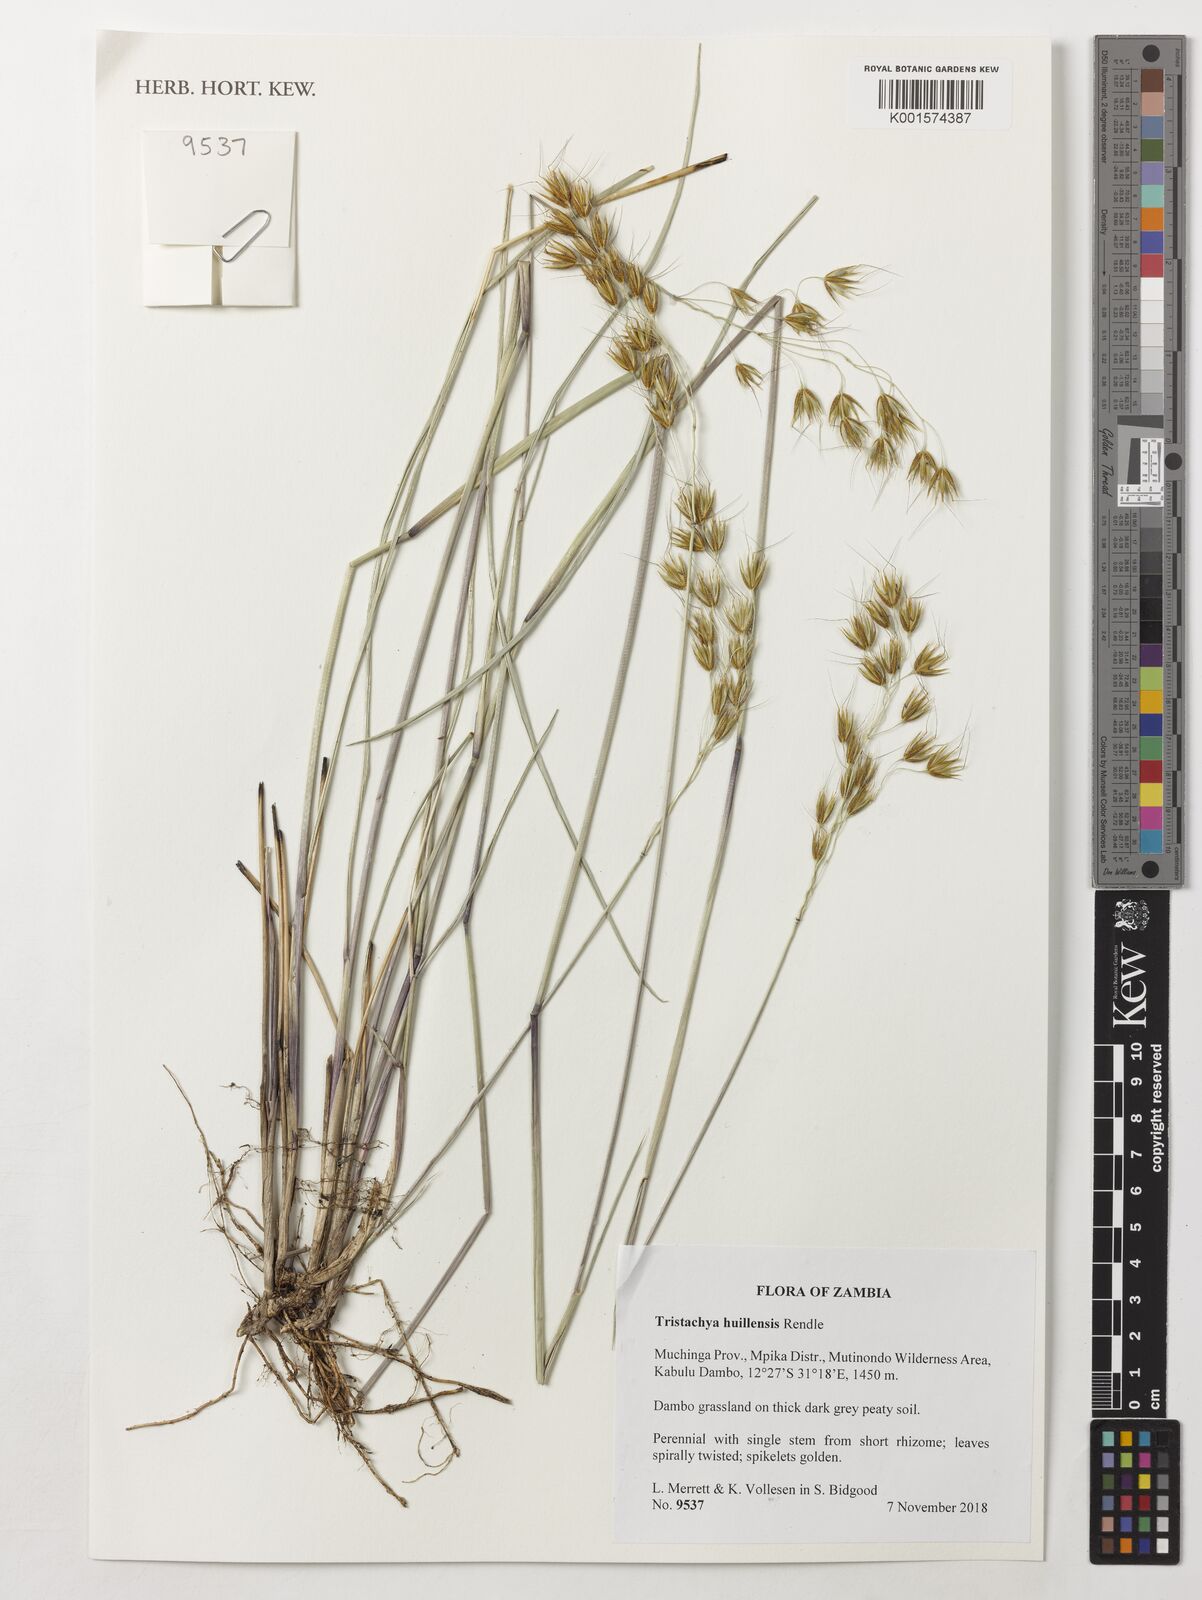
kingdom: Plantae
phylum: Tracheophyta
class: Liliopsida
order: Poales
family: Poaceae
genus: Tristachya
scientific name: Tristachya huillensis
